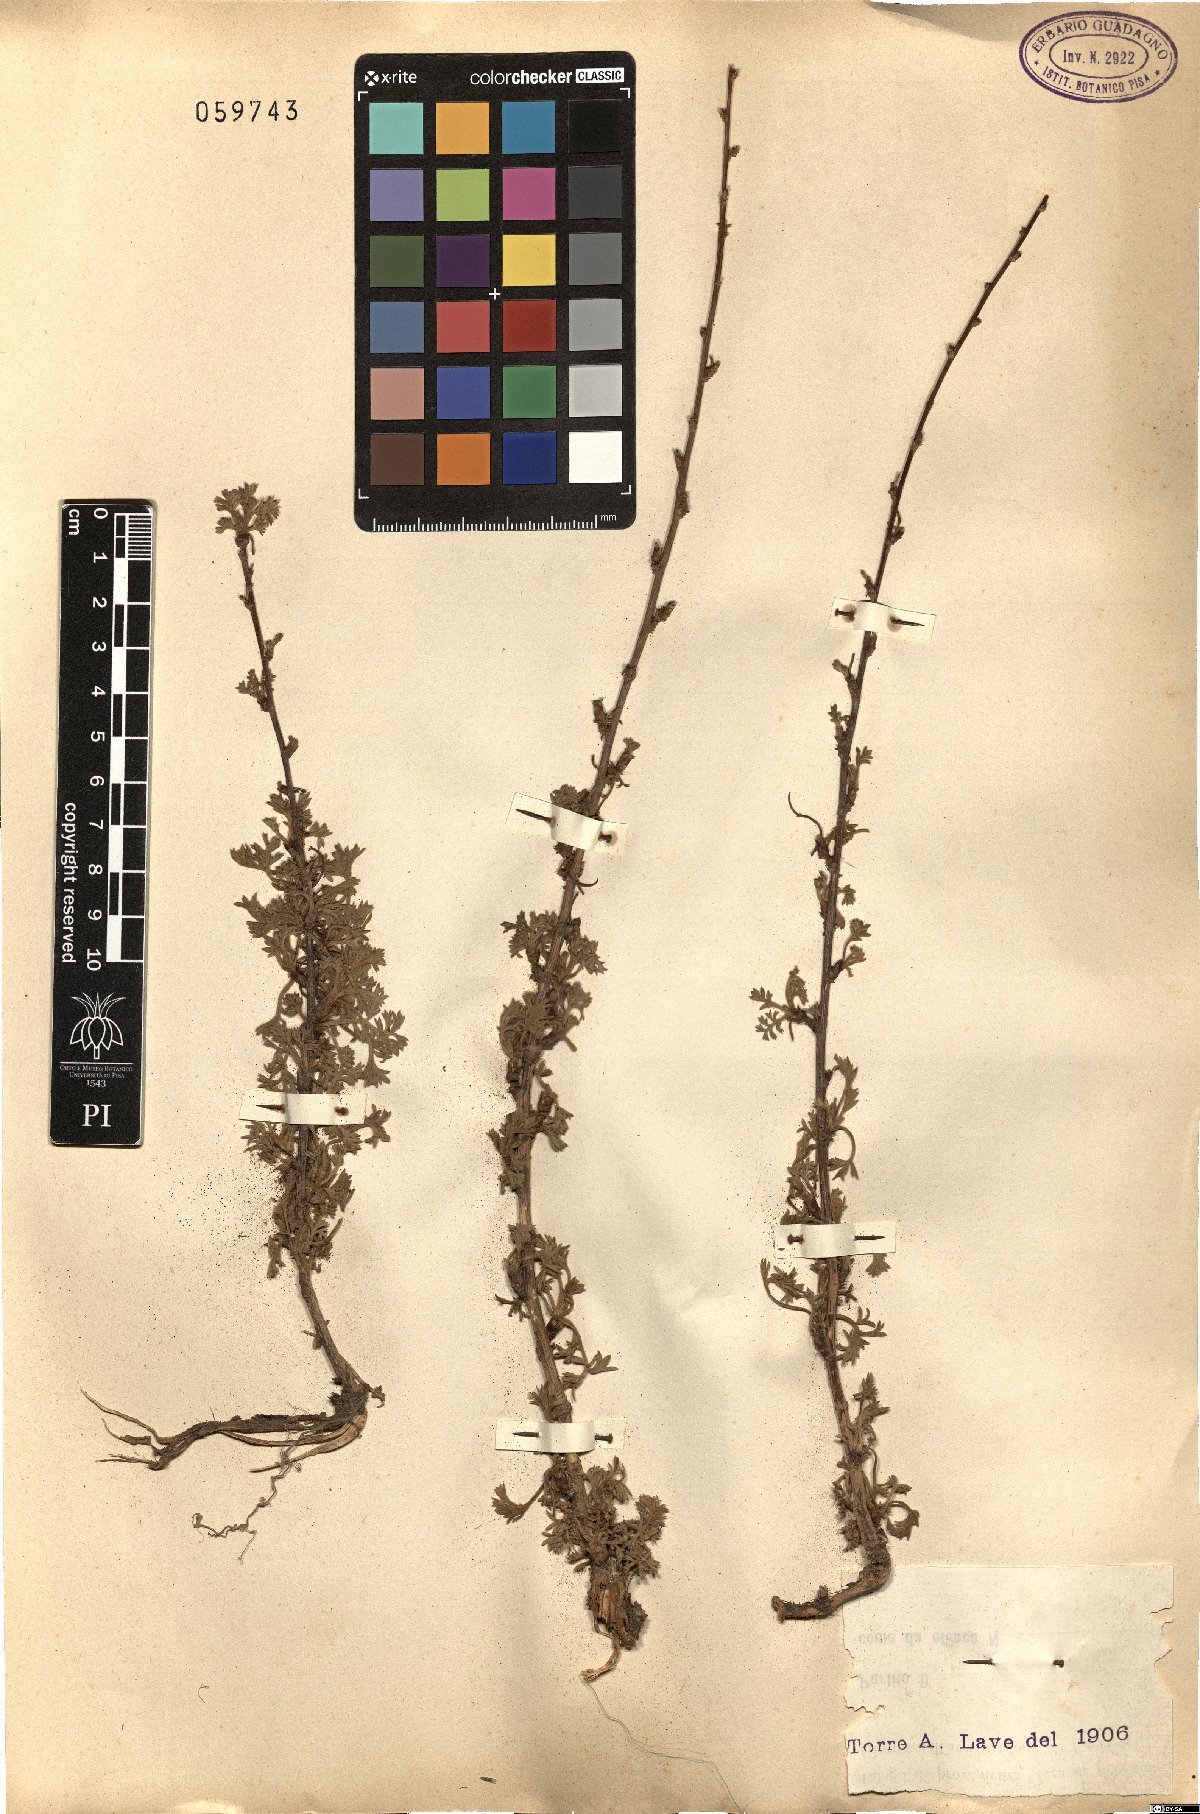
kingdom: Plantae
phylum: Tracheophyta
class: Magnoliopsida
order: Asterales
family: Asteraceae
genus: Artemisia
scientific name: Artemisia
